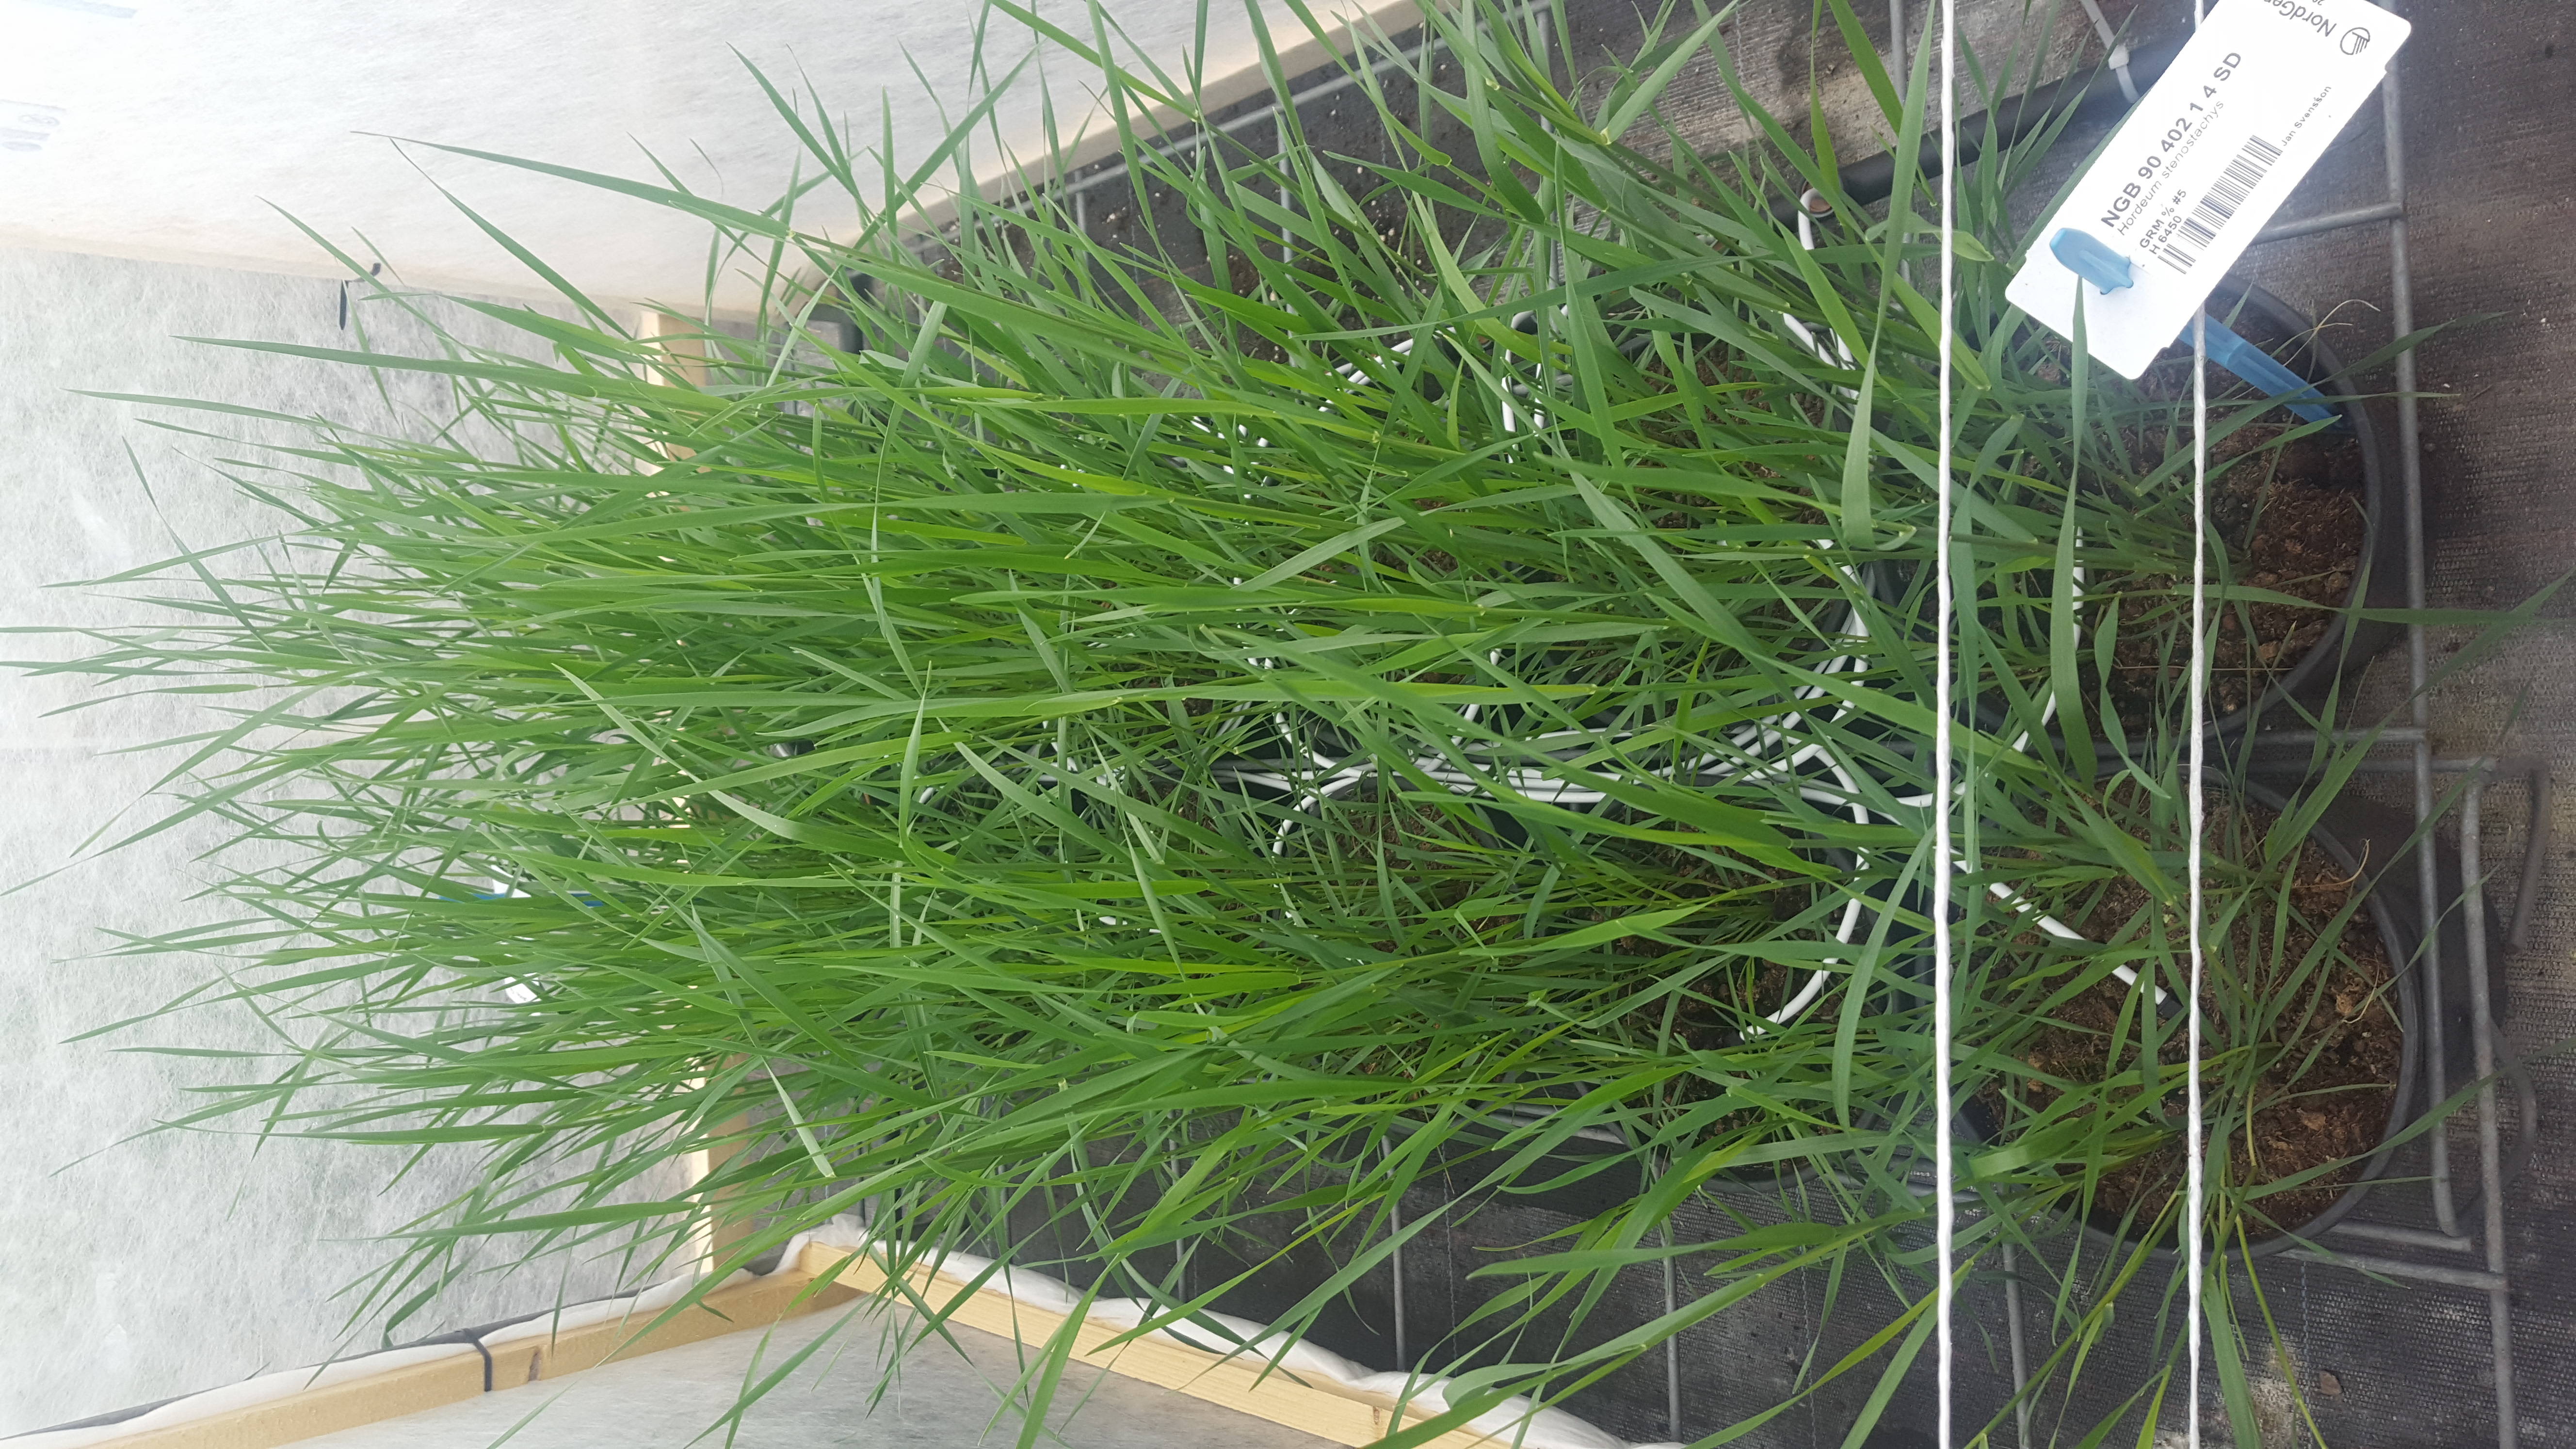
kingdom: Plantae
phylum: Tracheophyta
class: Liliopsida
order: Poales
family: Poaceae
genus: Hordeum
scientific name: Hordeum stenostachys
